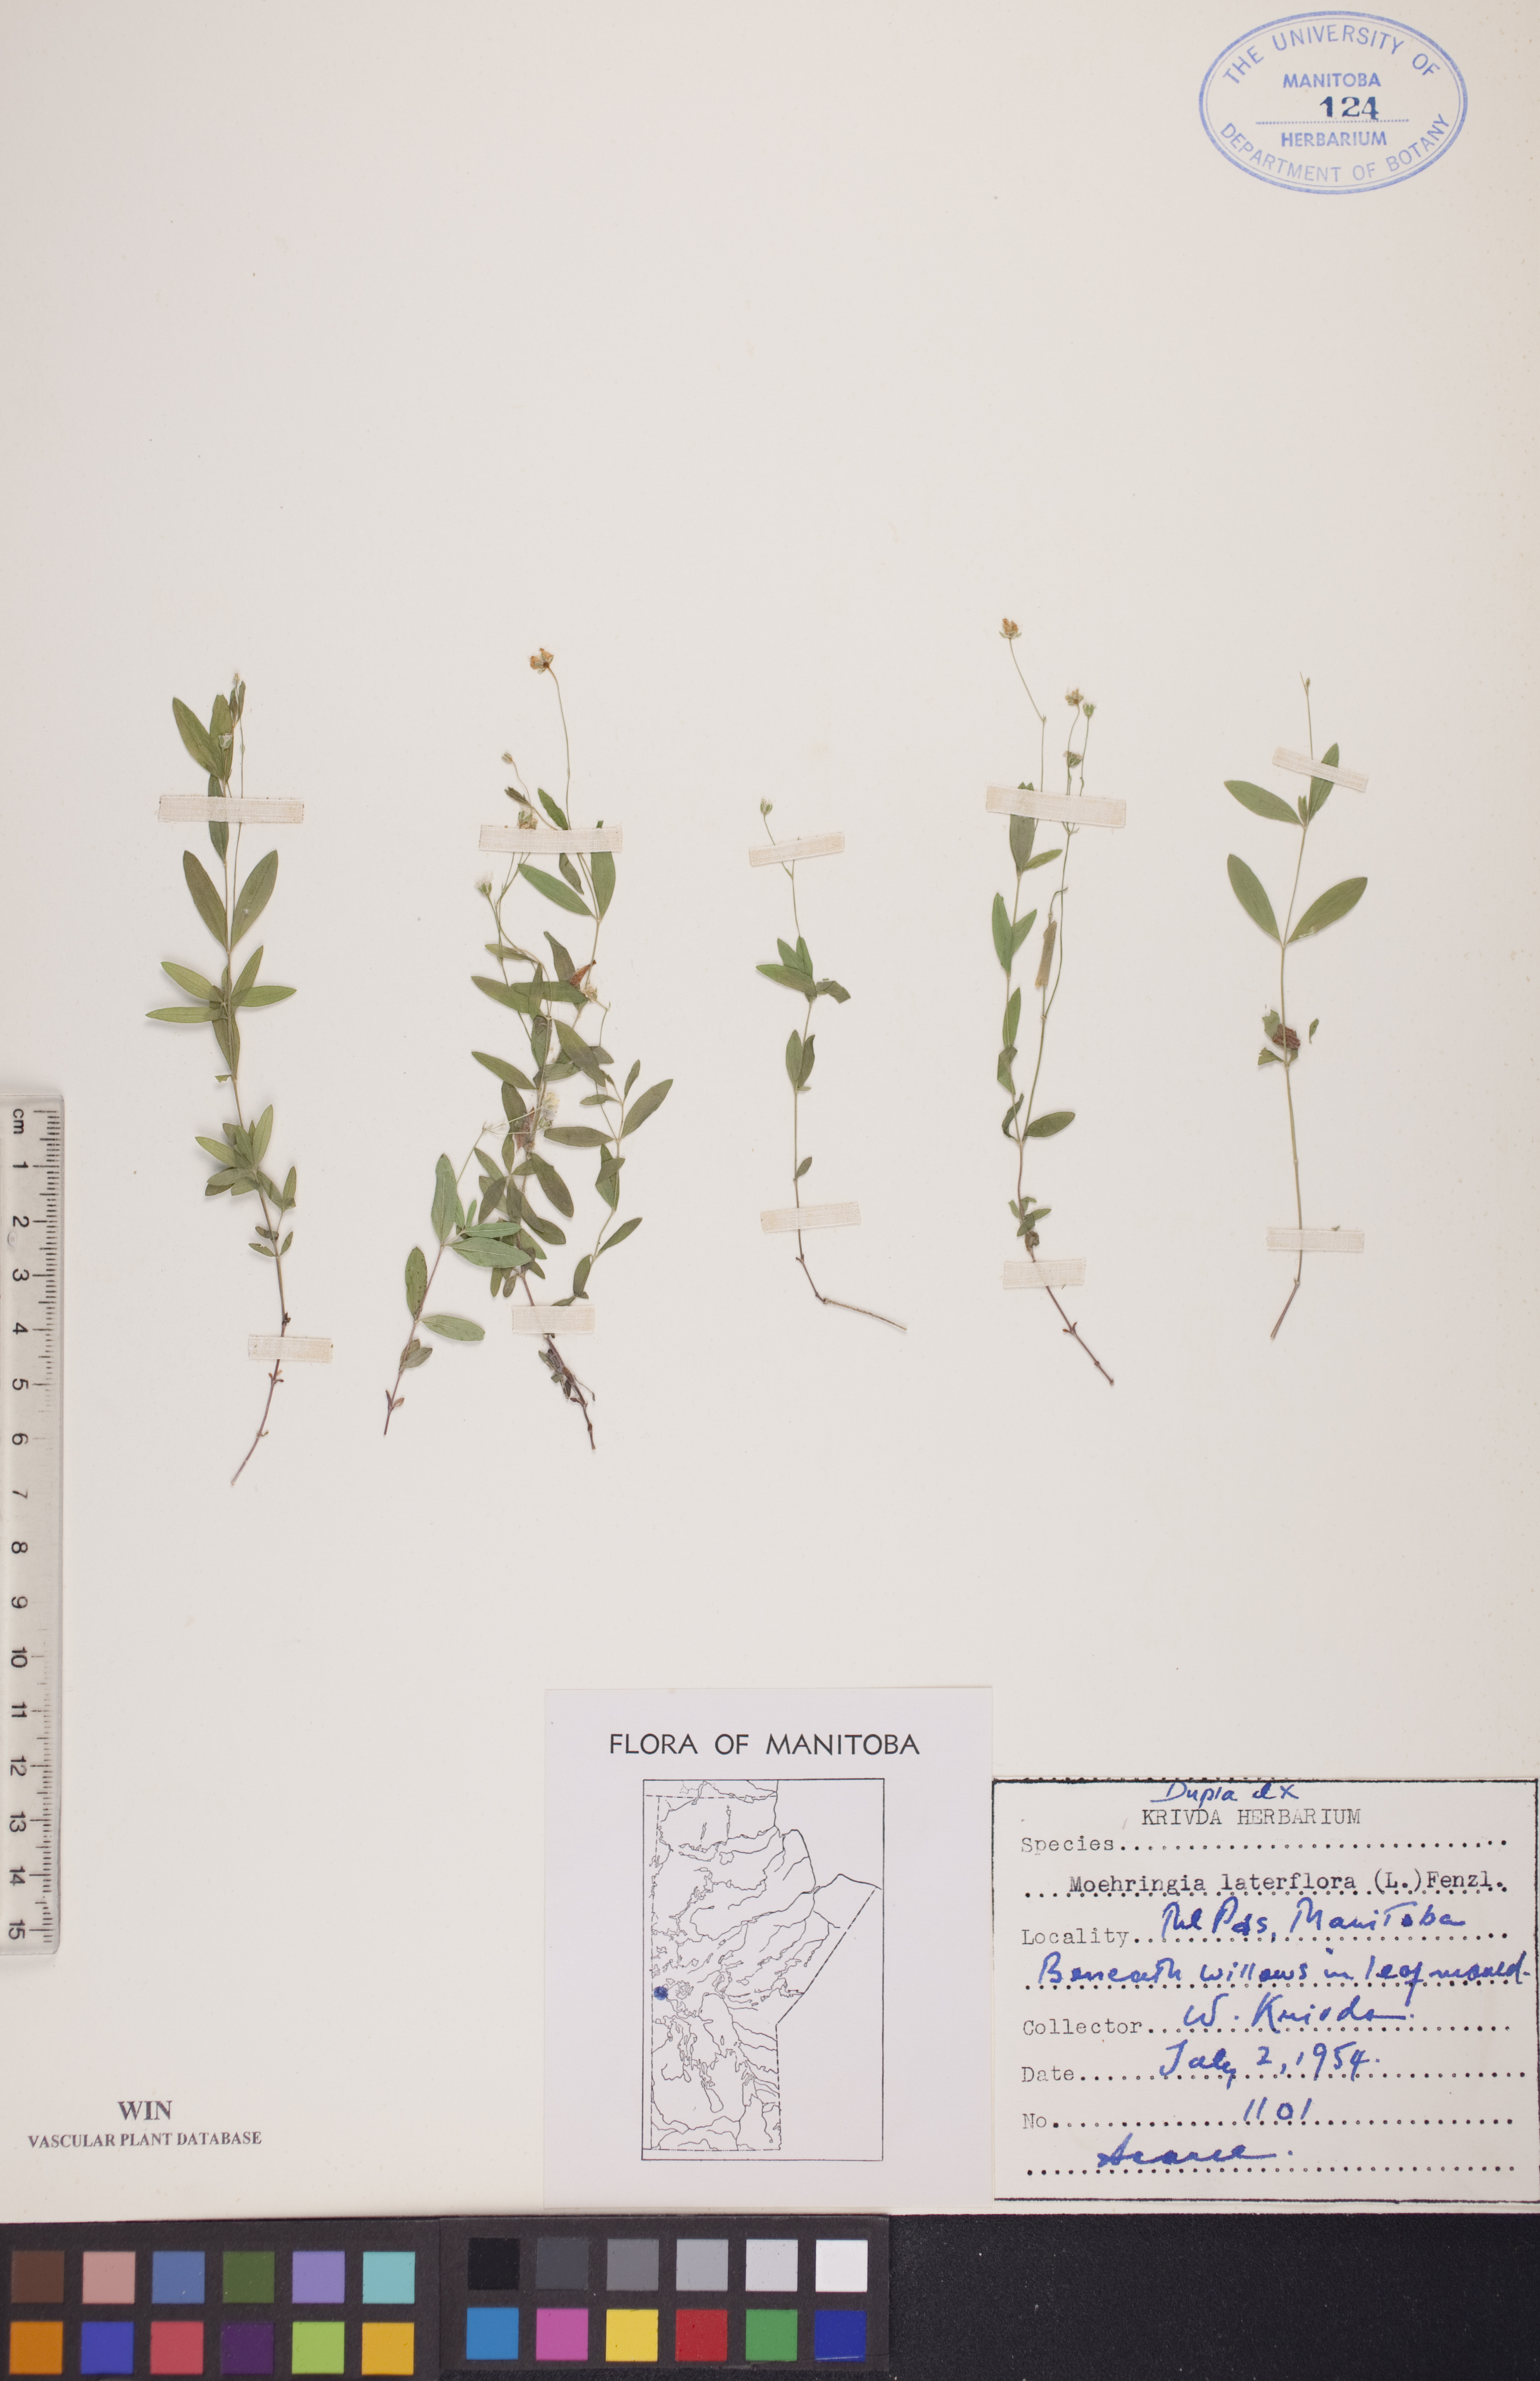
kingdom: Plantae
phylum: Tracheophyta
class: Magnoliopsida
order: Caryophyllales
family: Caryophyllaceae
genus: Moehringia
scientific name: Moehringia lateriflora
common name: Blunt-leaved sandwort
